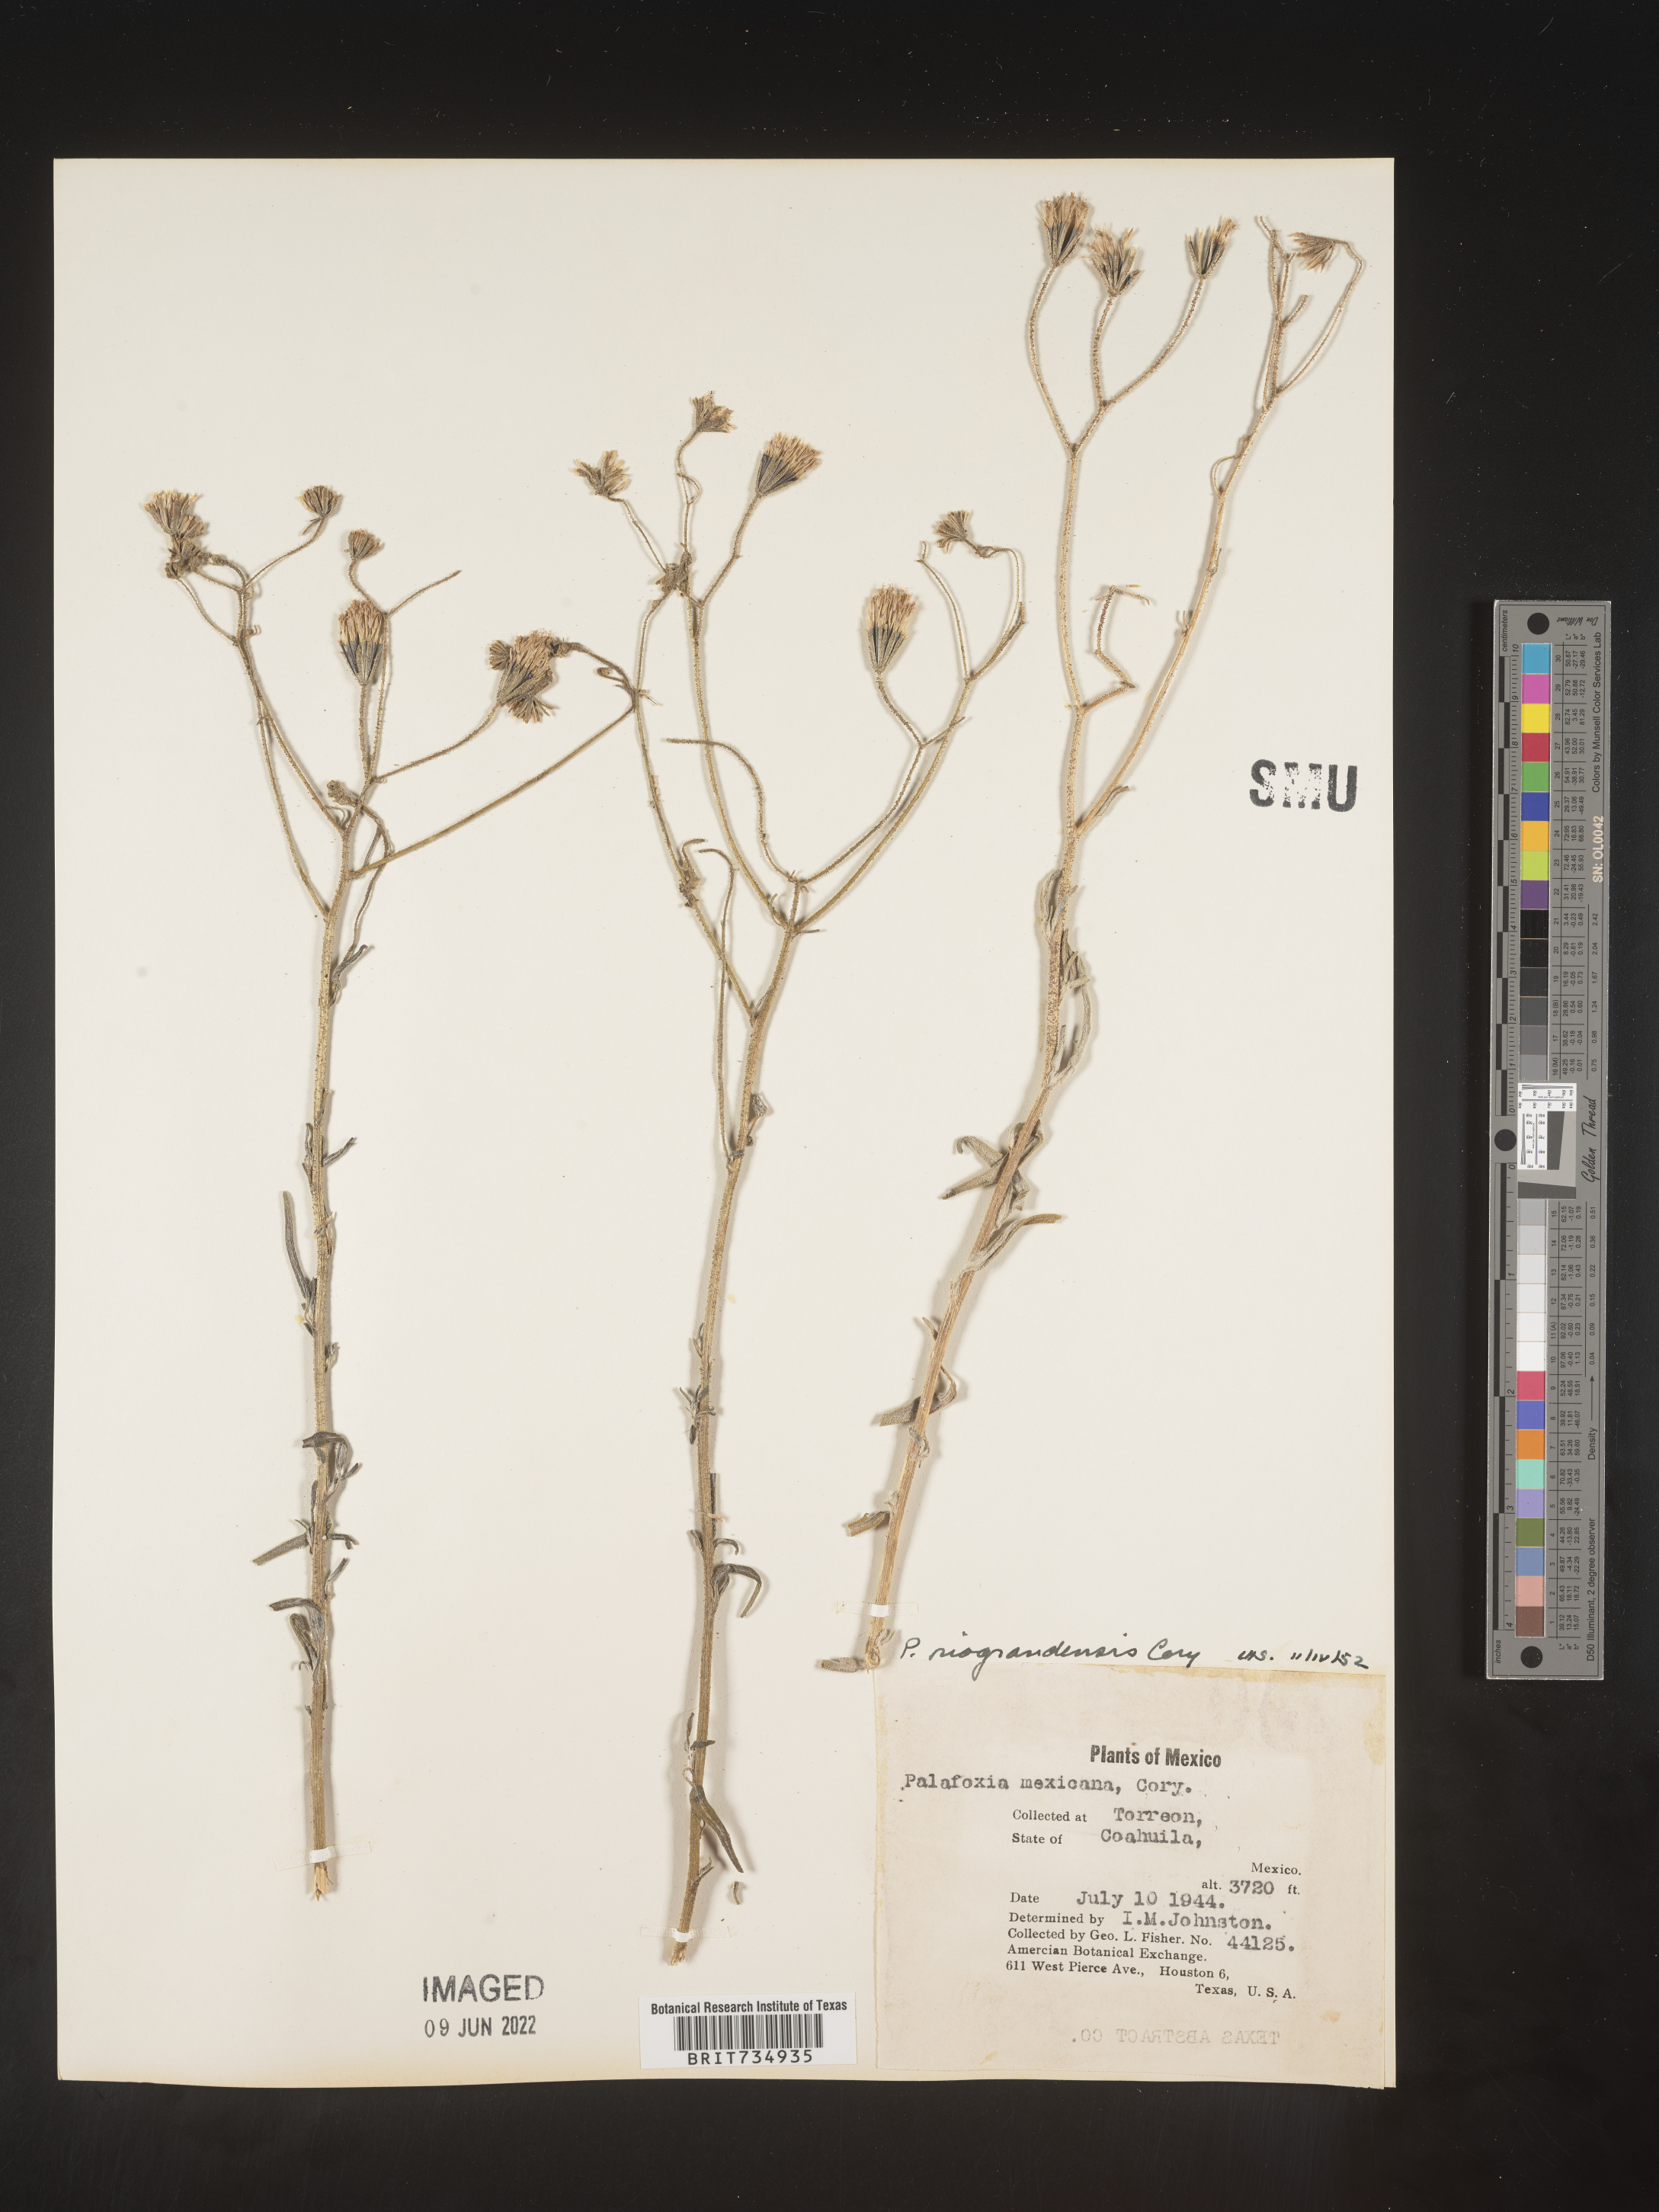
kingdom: Plantae
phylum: Tracheophyta
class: Magnoliopsida
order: Asterales
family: Asteraceae
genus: Palafoxia
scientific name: Palafoxia
